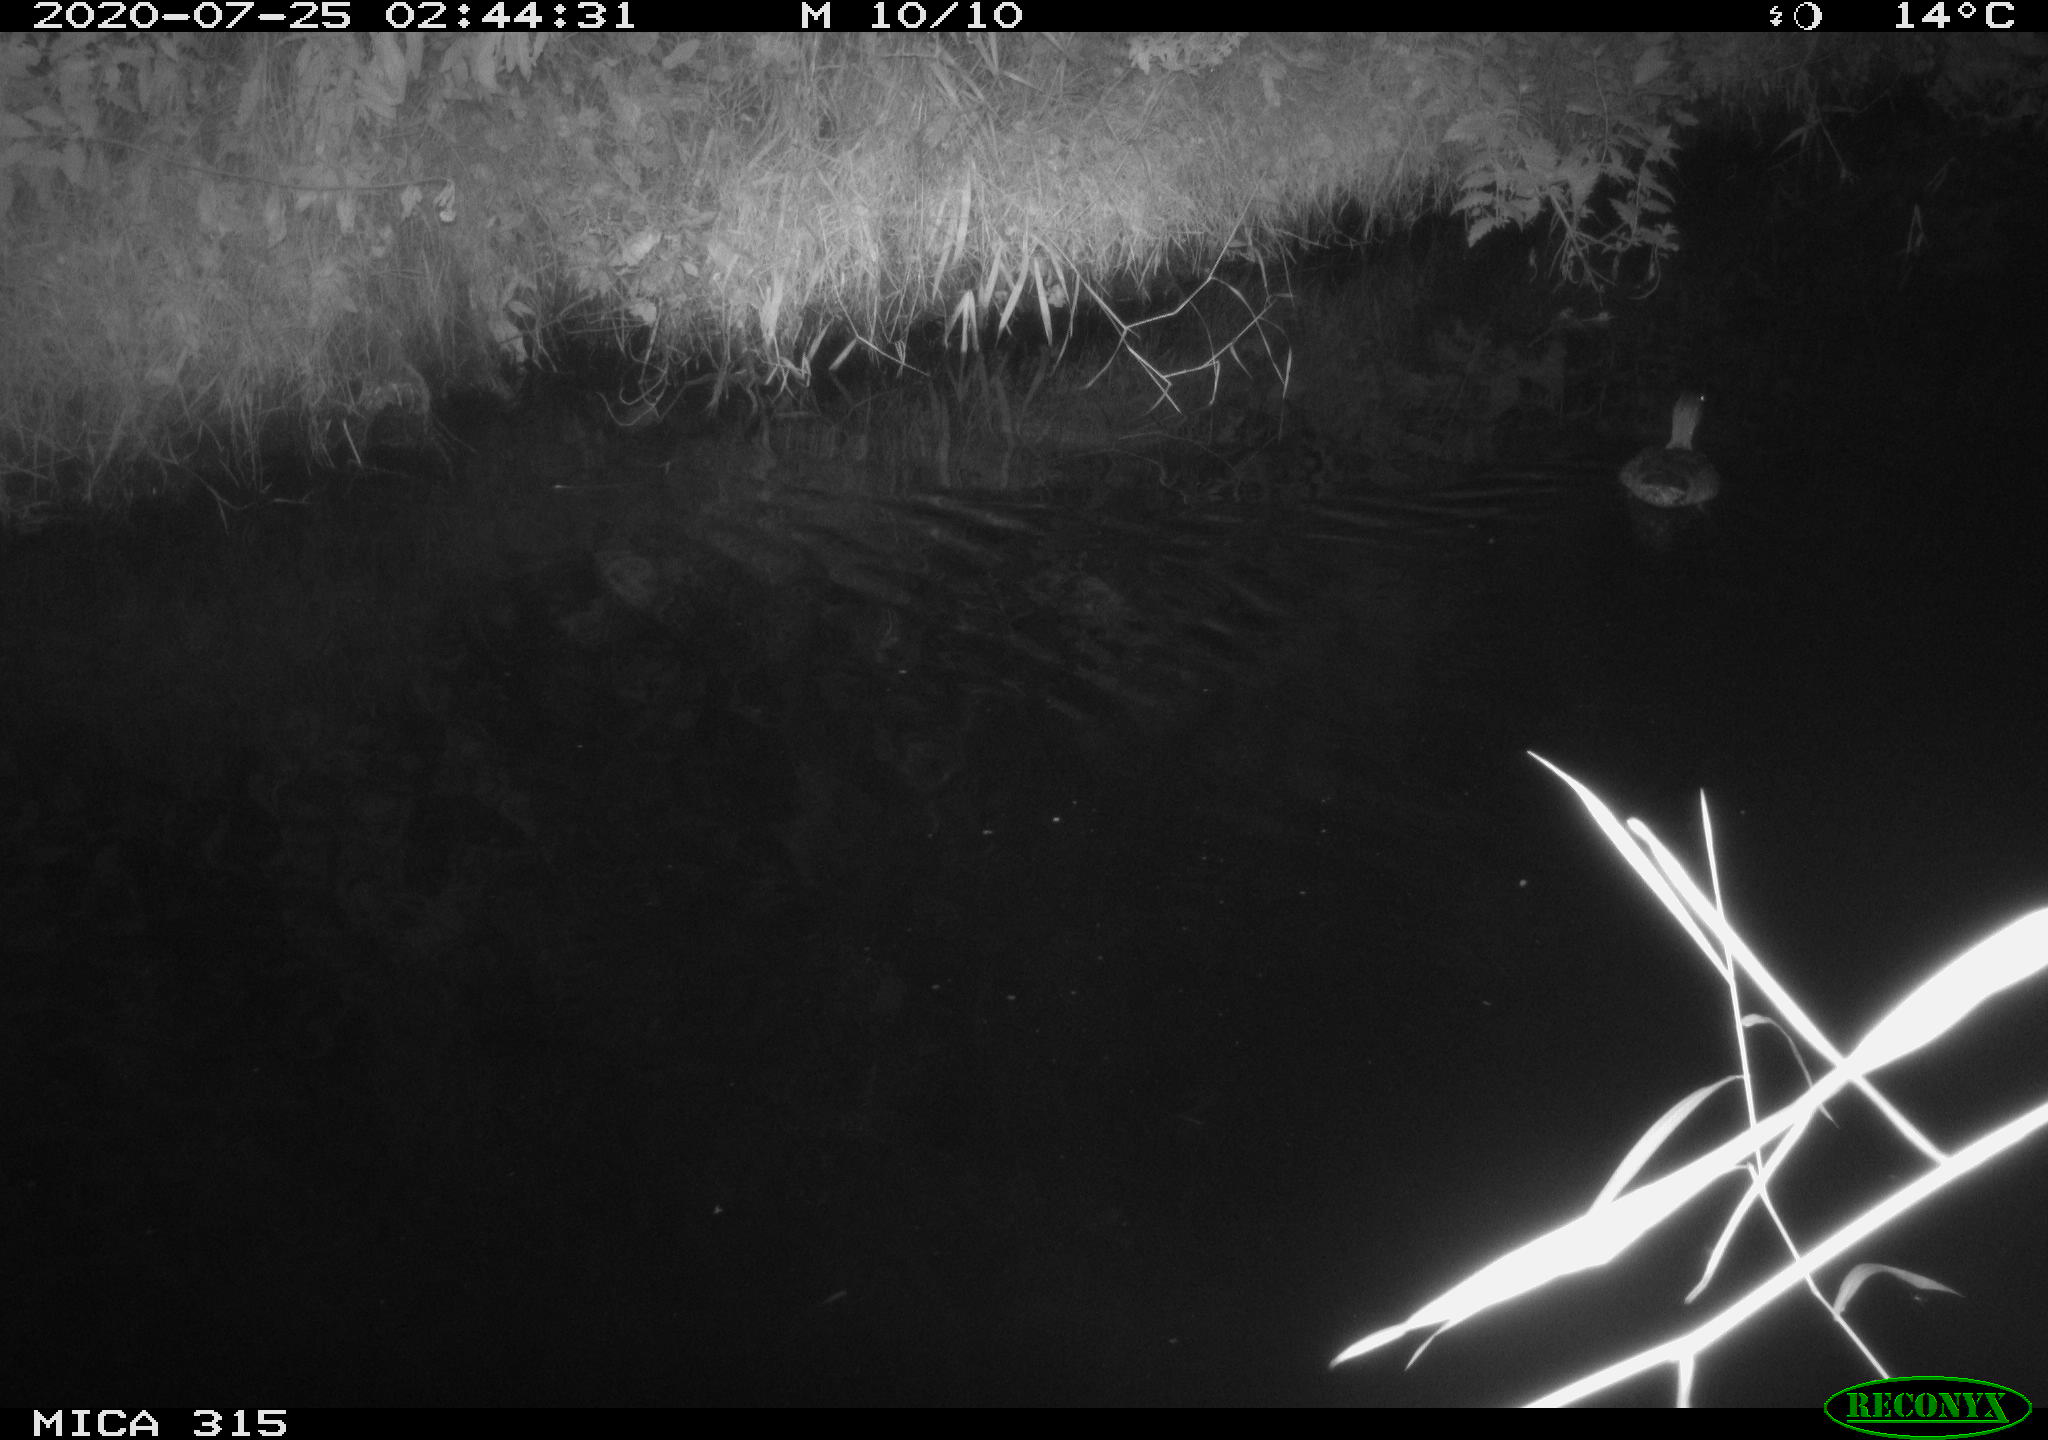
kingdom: Animalia
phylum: Chordata
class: Aves
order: Anseriformes
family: Anatidae
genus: Anas
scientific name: Anas platyrhynchos
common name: Mallard
